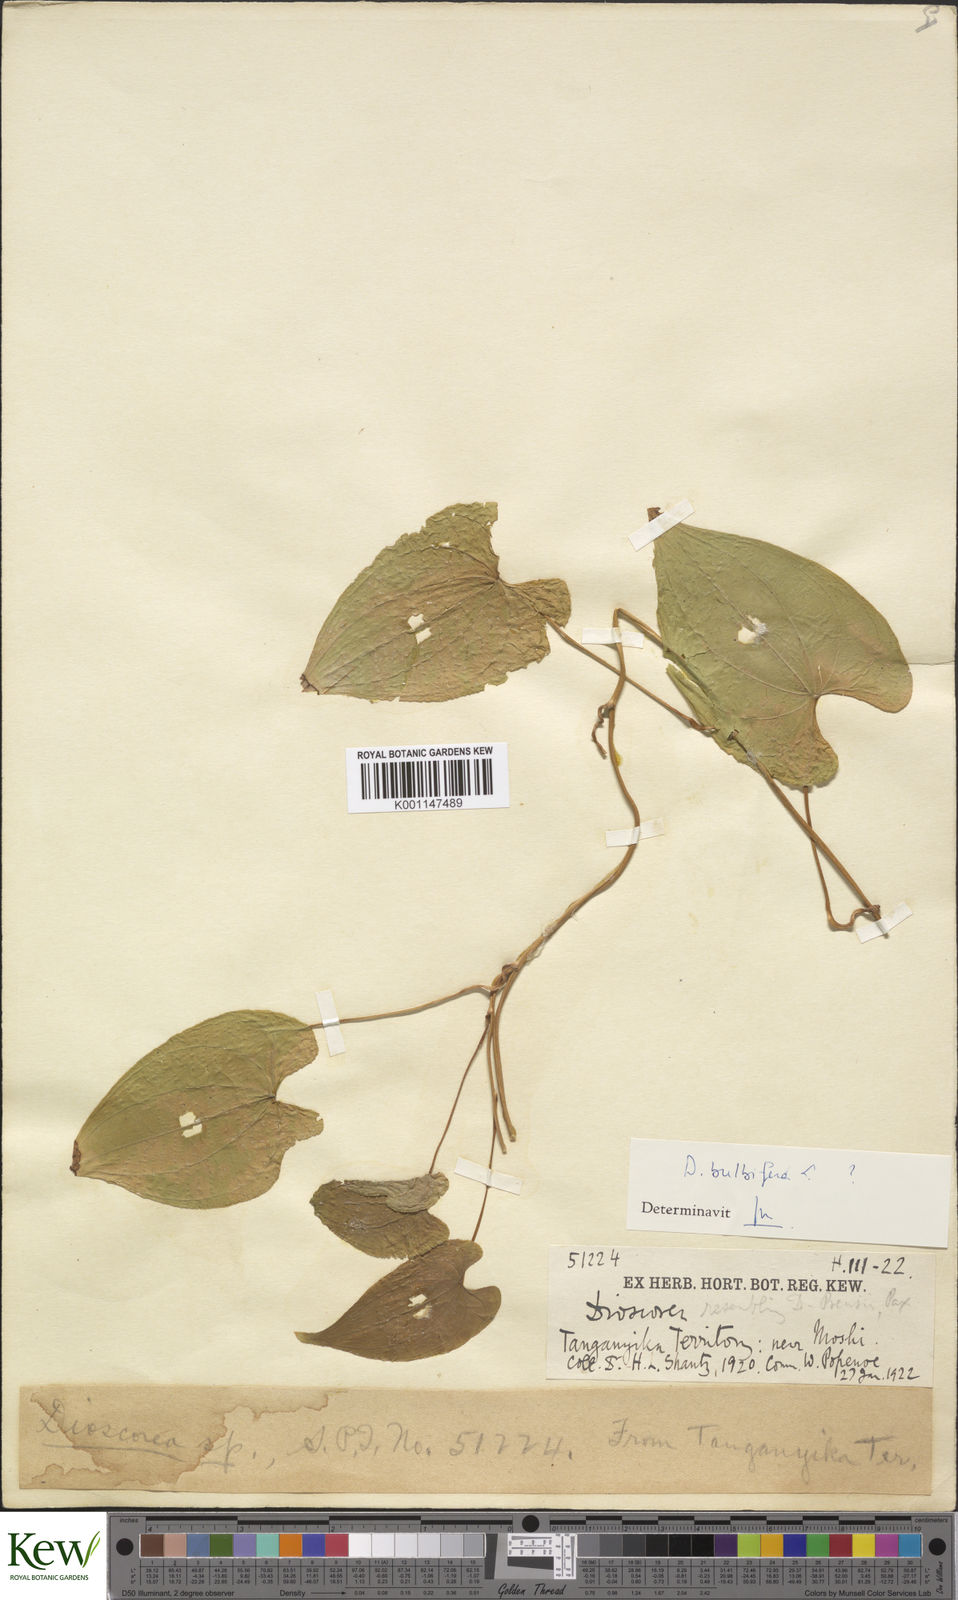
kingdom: Plantae
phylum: Tracheophyta
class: Liliopsida
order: Dioscoreales
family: Dioscoreaceae
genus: Dioscorea
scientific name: Dioscorea
